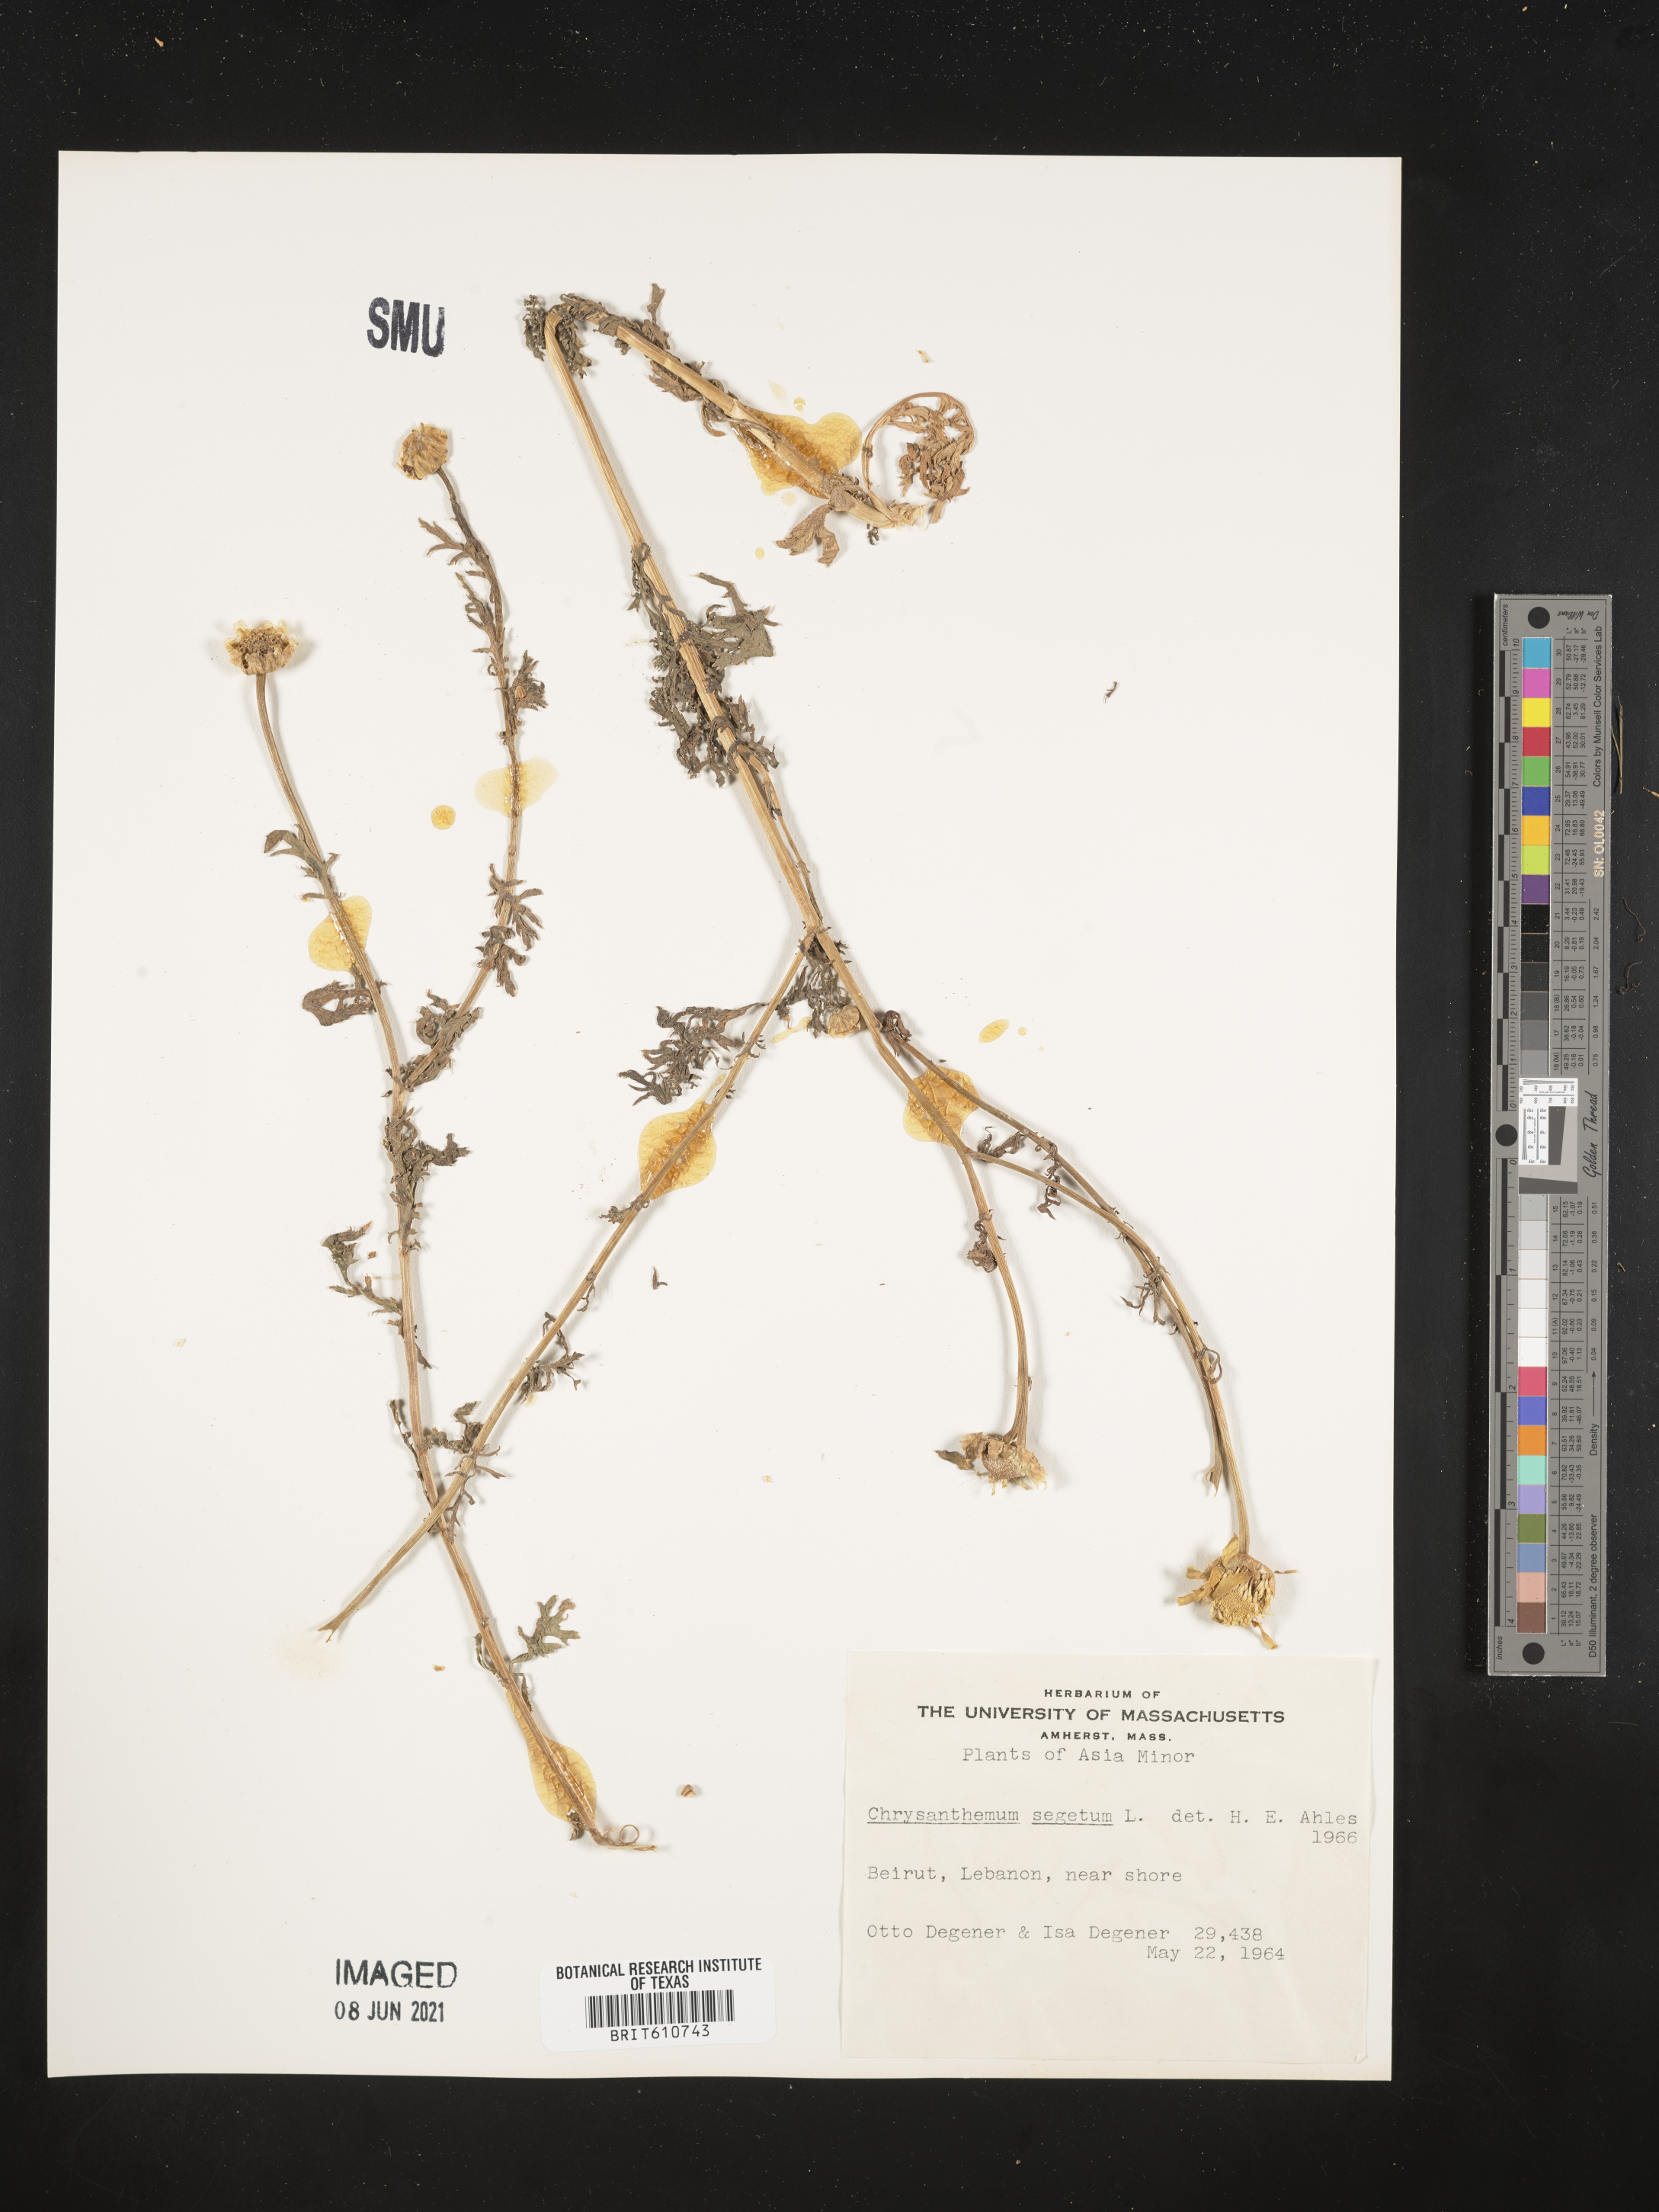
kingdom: Plantae
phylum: Tracheophyta
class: Magnoliopsida
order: Asterales
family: Asteraceae
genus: Glebionis
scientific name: Glebionis segetum
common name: Corndaisy
